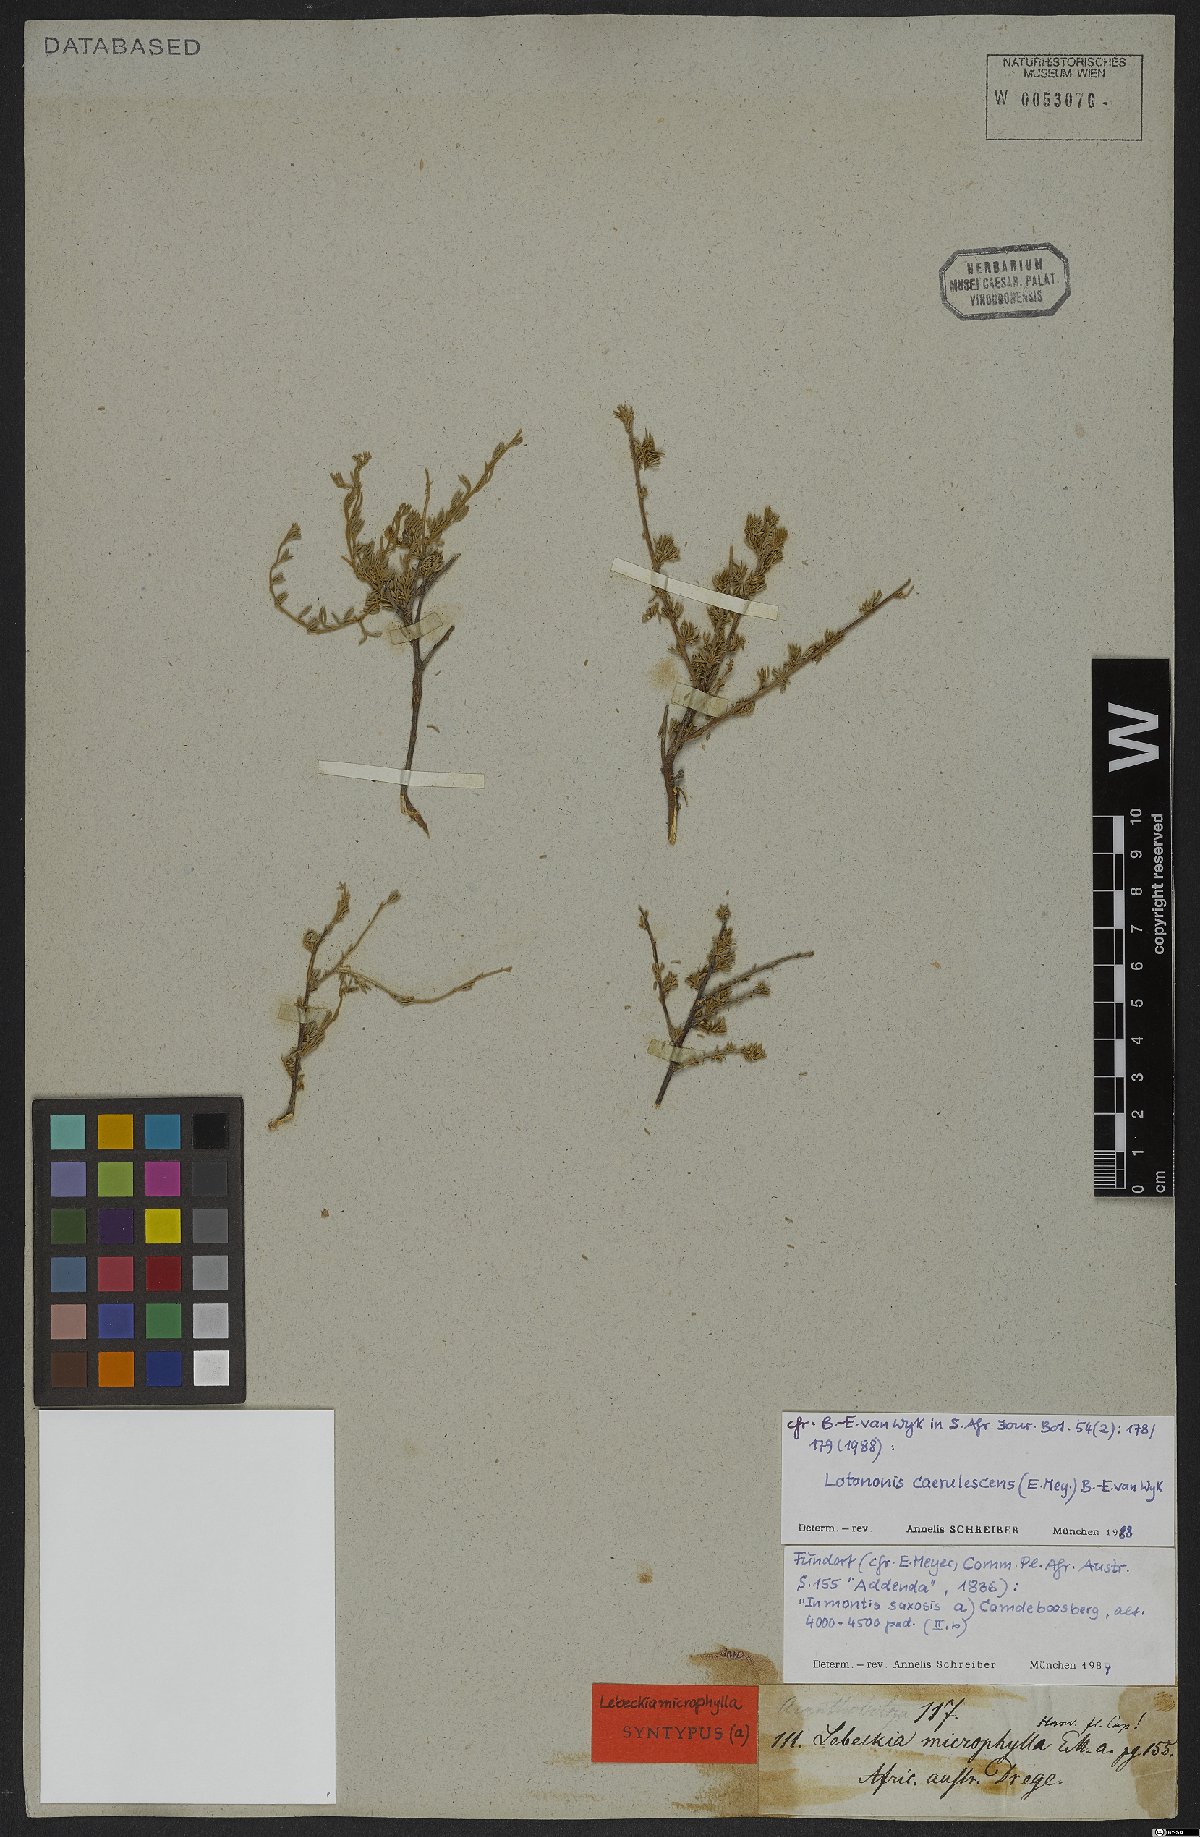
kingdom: Plantae
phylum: Tracheophyta
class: Magnoliopsida
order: Fabales
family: Fabaceae
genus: Lotononis
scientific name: Lotononis caerulescens
